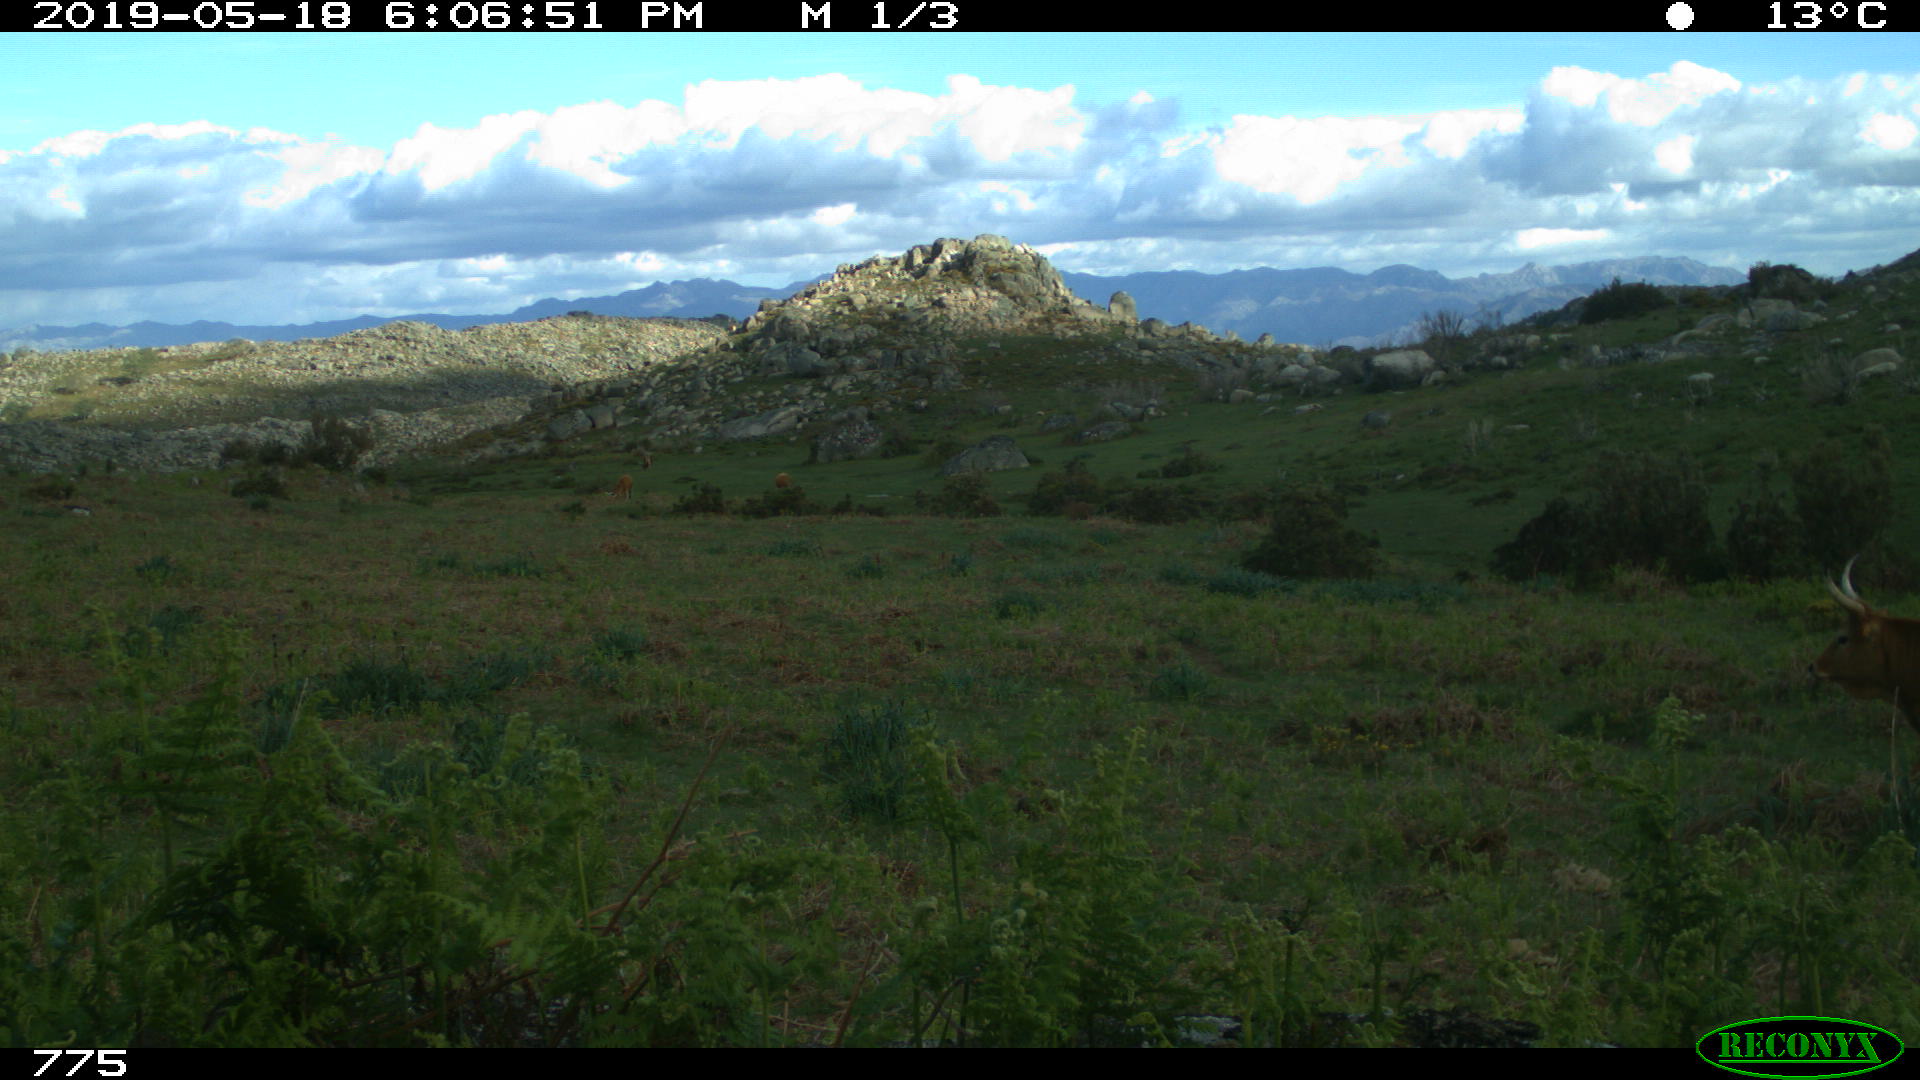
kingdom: Animalia
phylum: Chordata
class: Mammalia
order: Artiodactyla
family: Bovidae
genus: Bos
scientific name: Bos taurus
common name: Domesticated cattle
